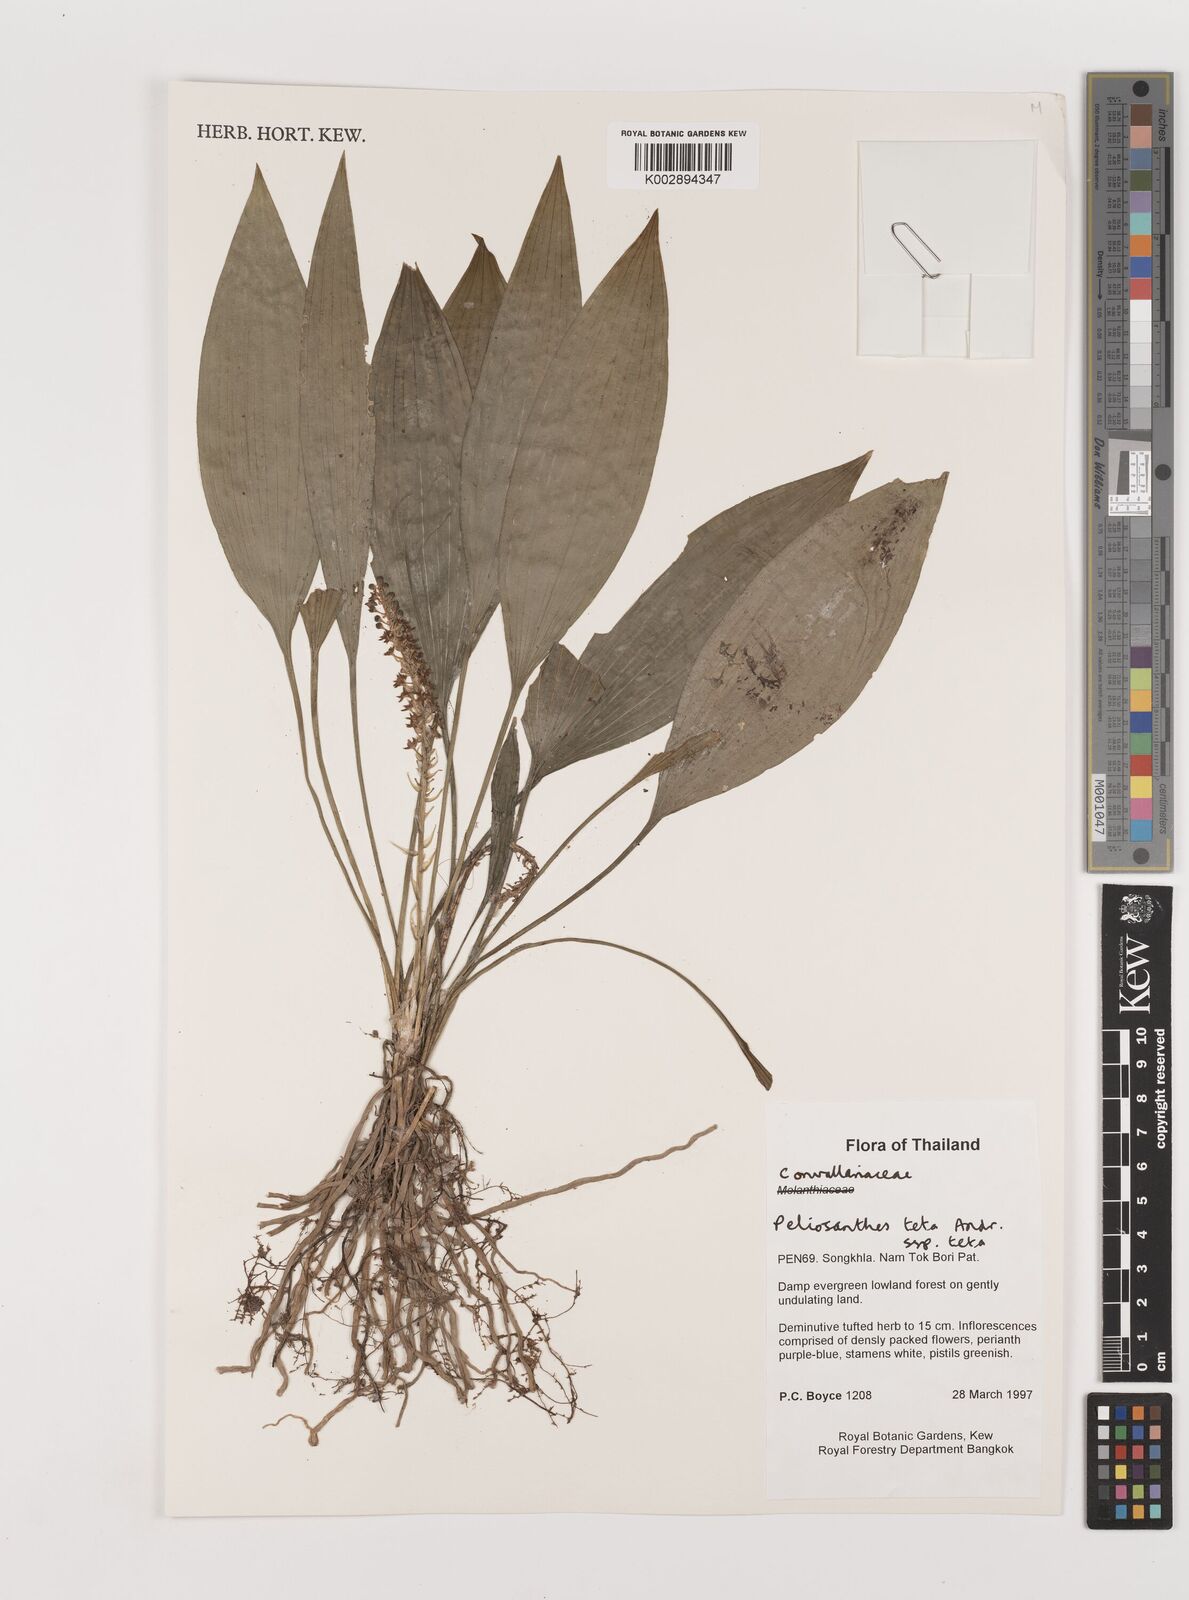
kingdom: Plantae
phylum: Tracheophyta
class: Liliopsida
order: Asparagales
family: Asparagaceae
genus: Peliosanthes
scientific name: Peliosanthes teta
